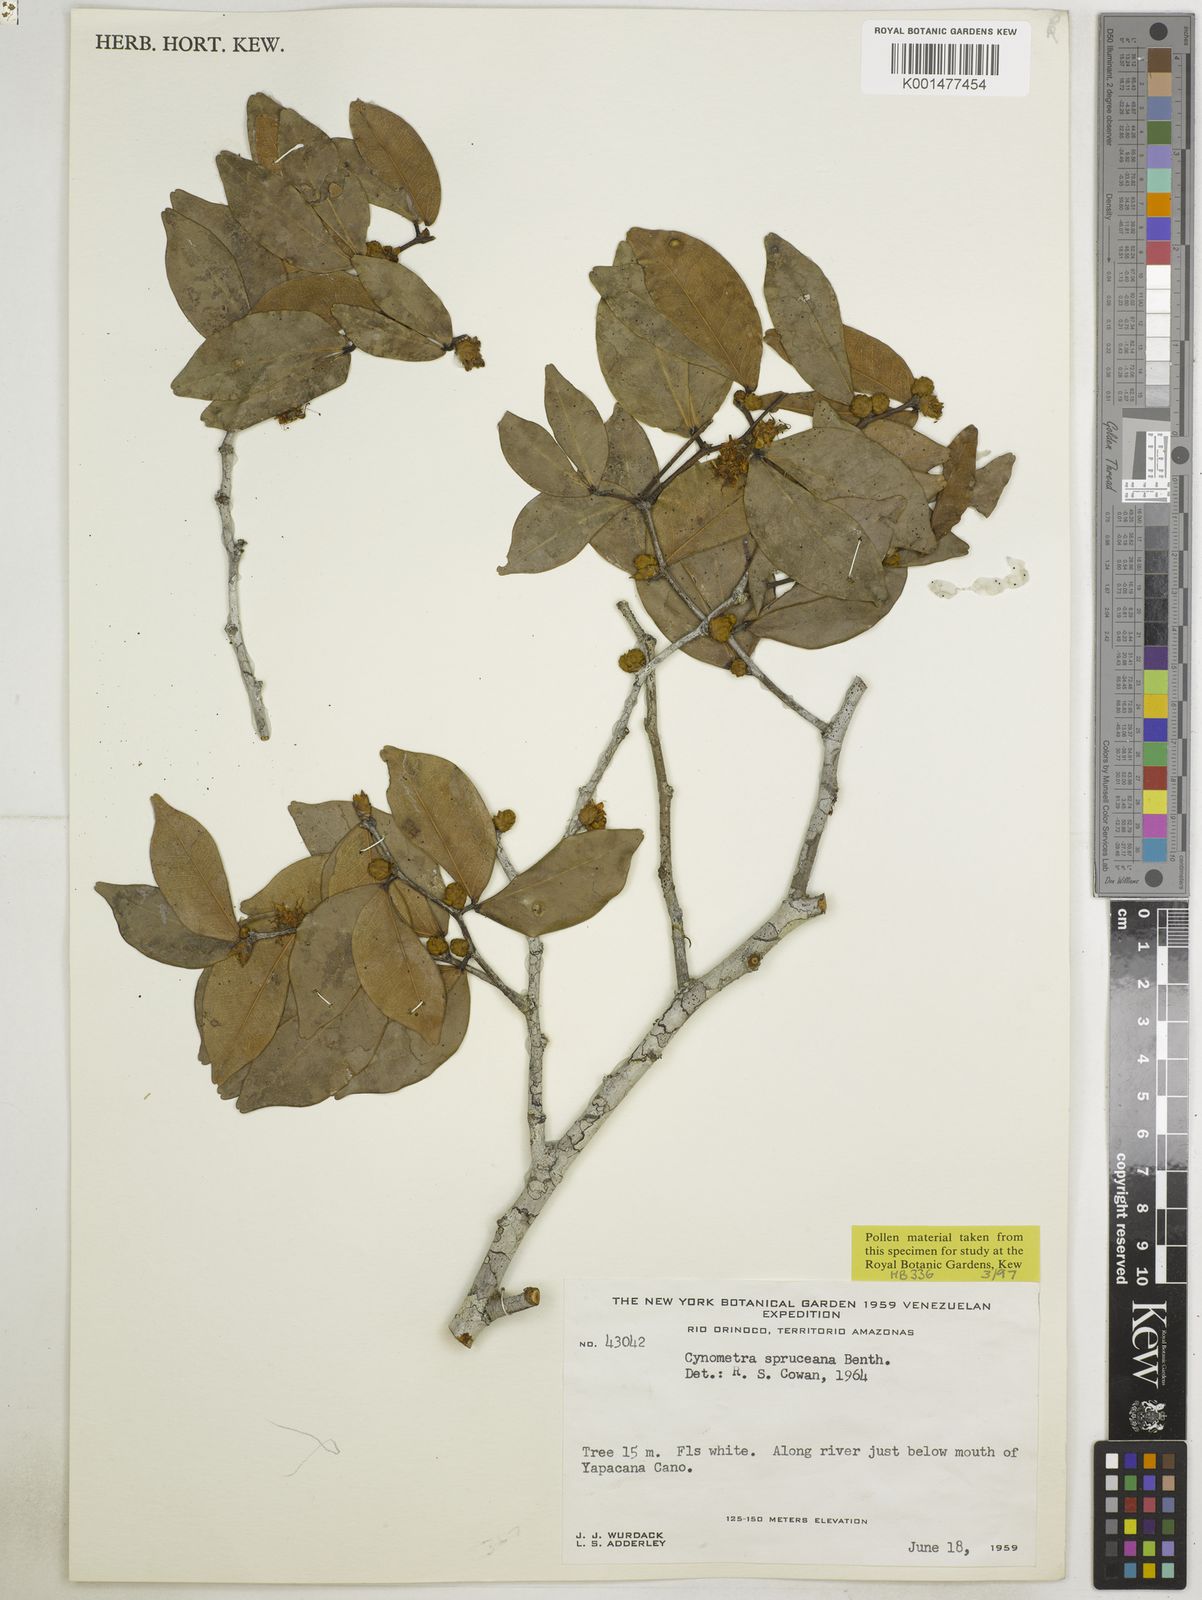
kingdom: Plantae
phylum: Tracheophyta
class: Magnoliopsida
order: Fabales
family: Fabaceae
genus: Cynometra
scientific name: Cynometra phaselocarpa
